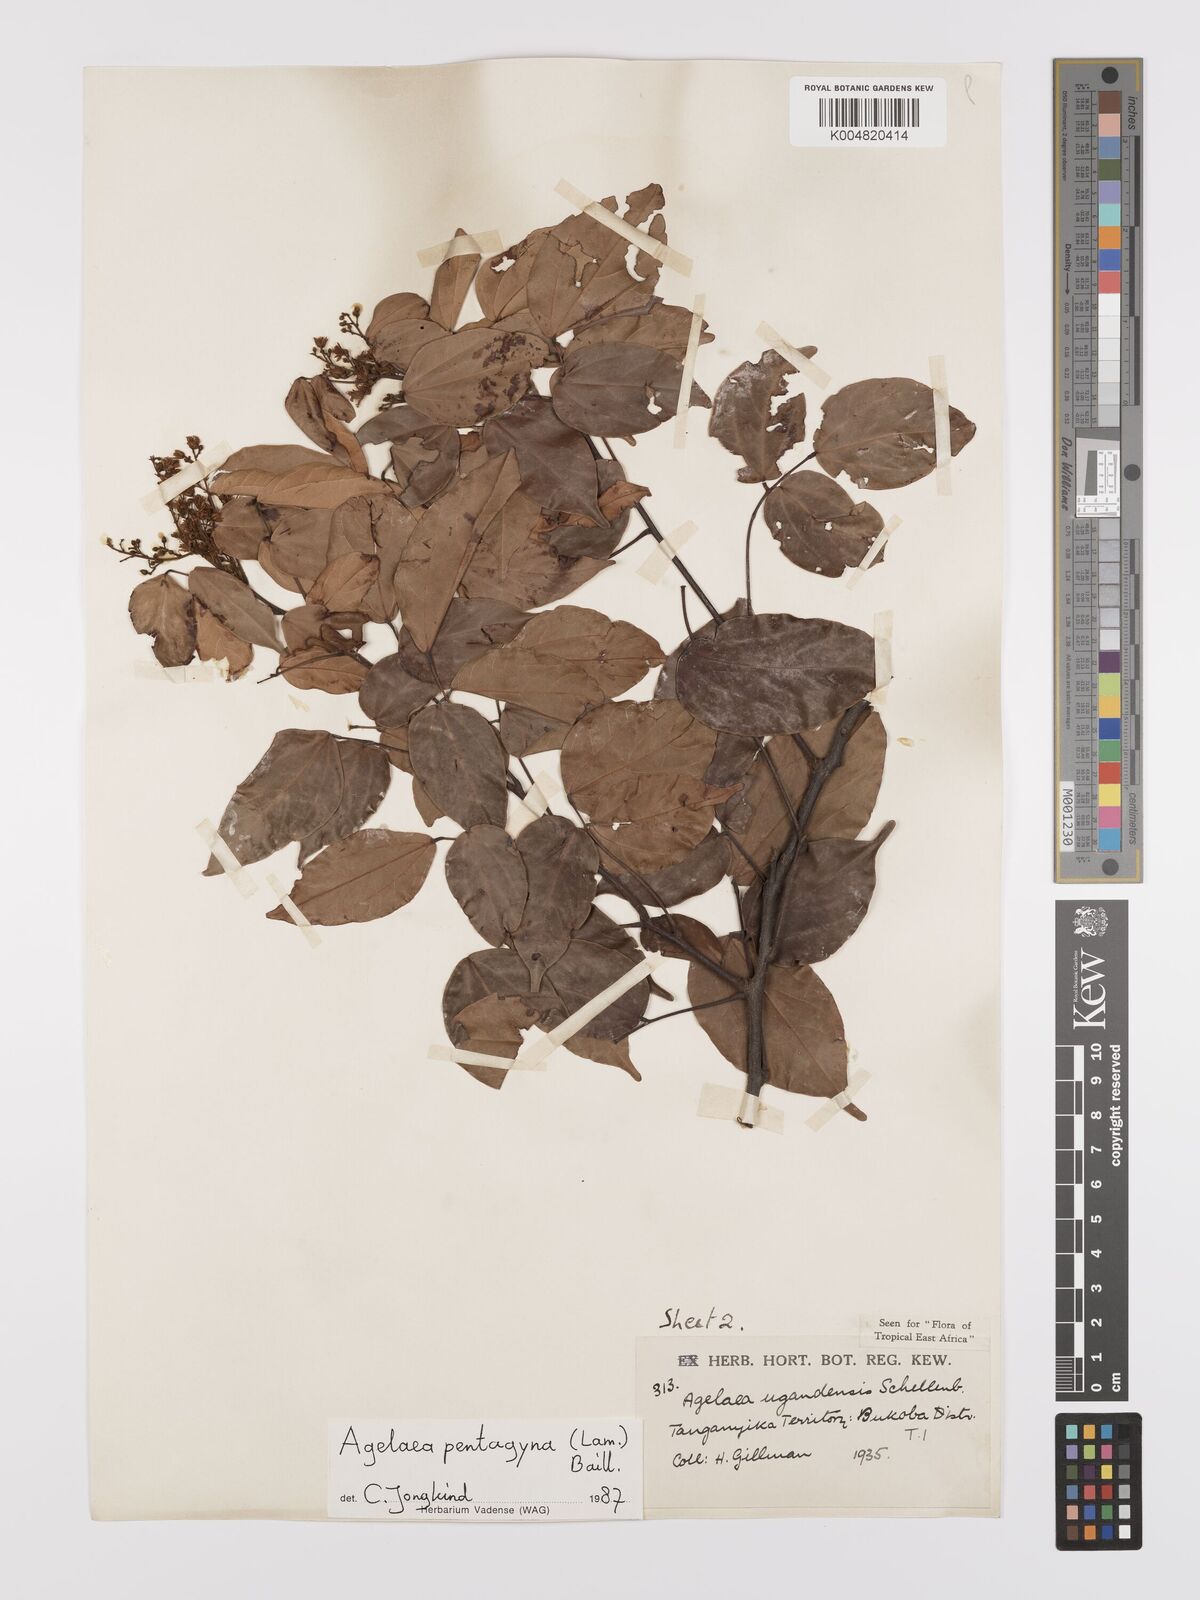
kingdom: Plantae
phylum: Tracheophyta
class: Magnoliopsida
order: Oxalidales
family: Connaraceae
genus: Agelaea
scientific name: Agelaea pentagyna
